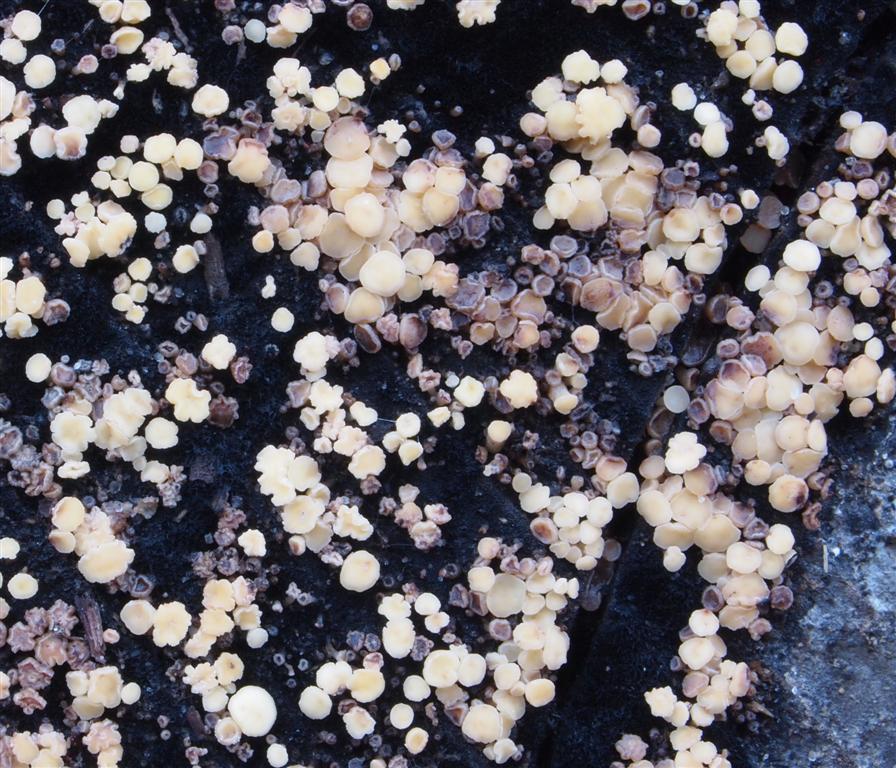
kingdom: Fungi
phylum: Ascomycota
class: Leotiomycetes
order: Helotiales
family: Helotiaceae
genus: Bispora
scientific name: Bispora pallescens
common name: måtte-snitskive
